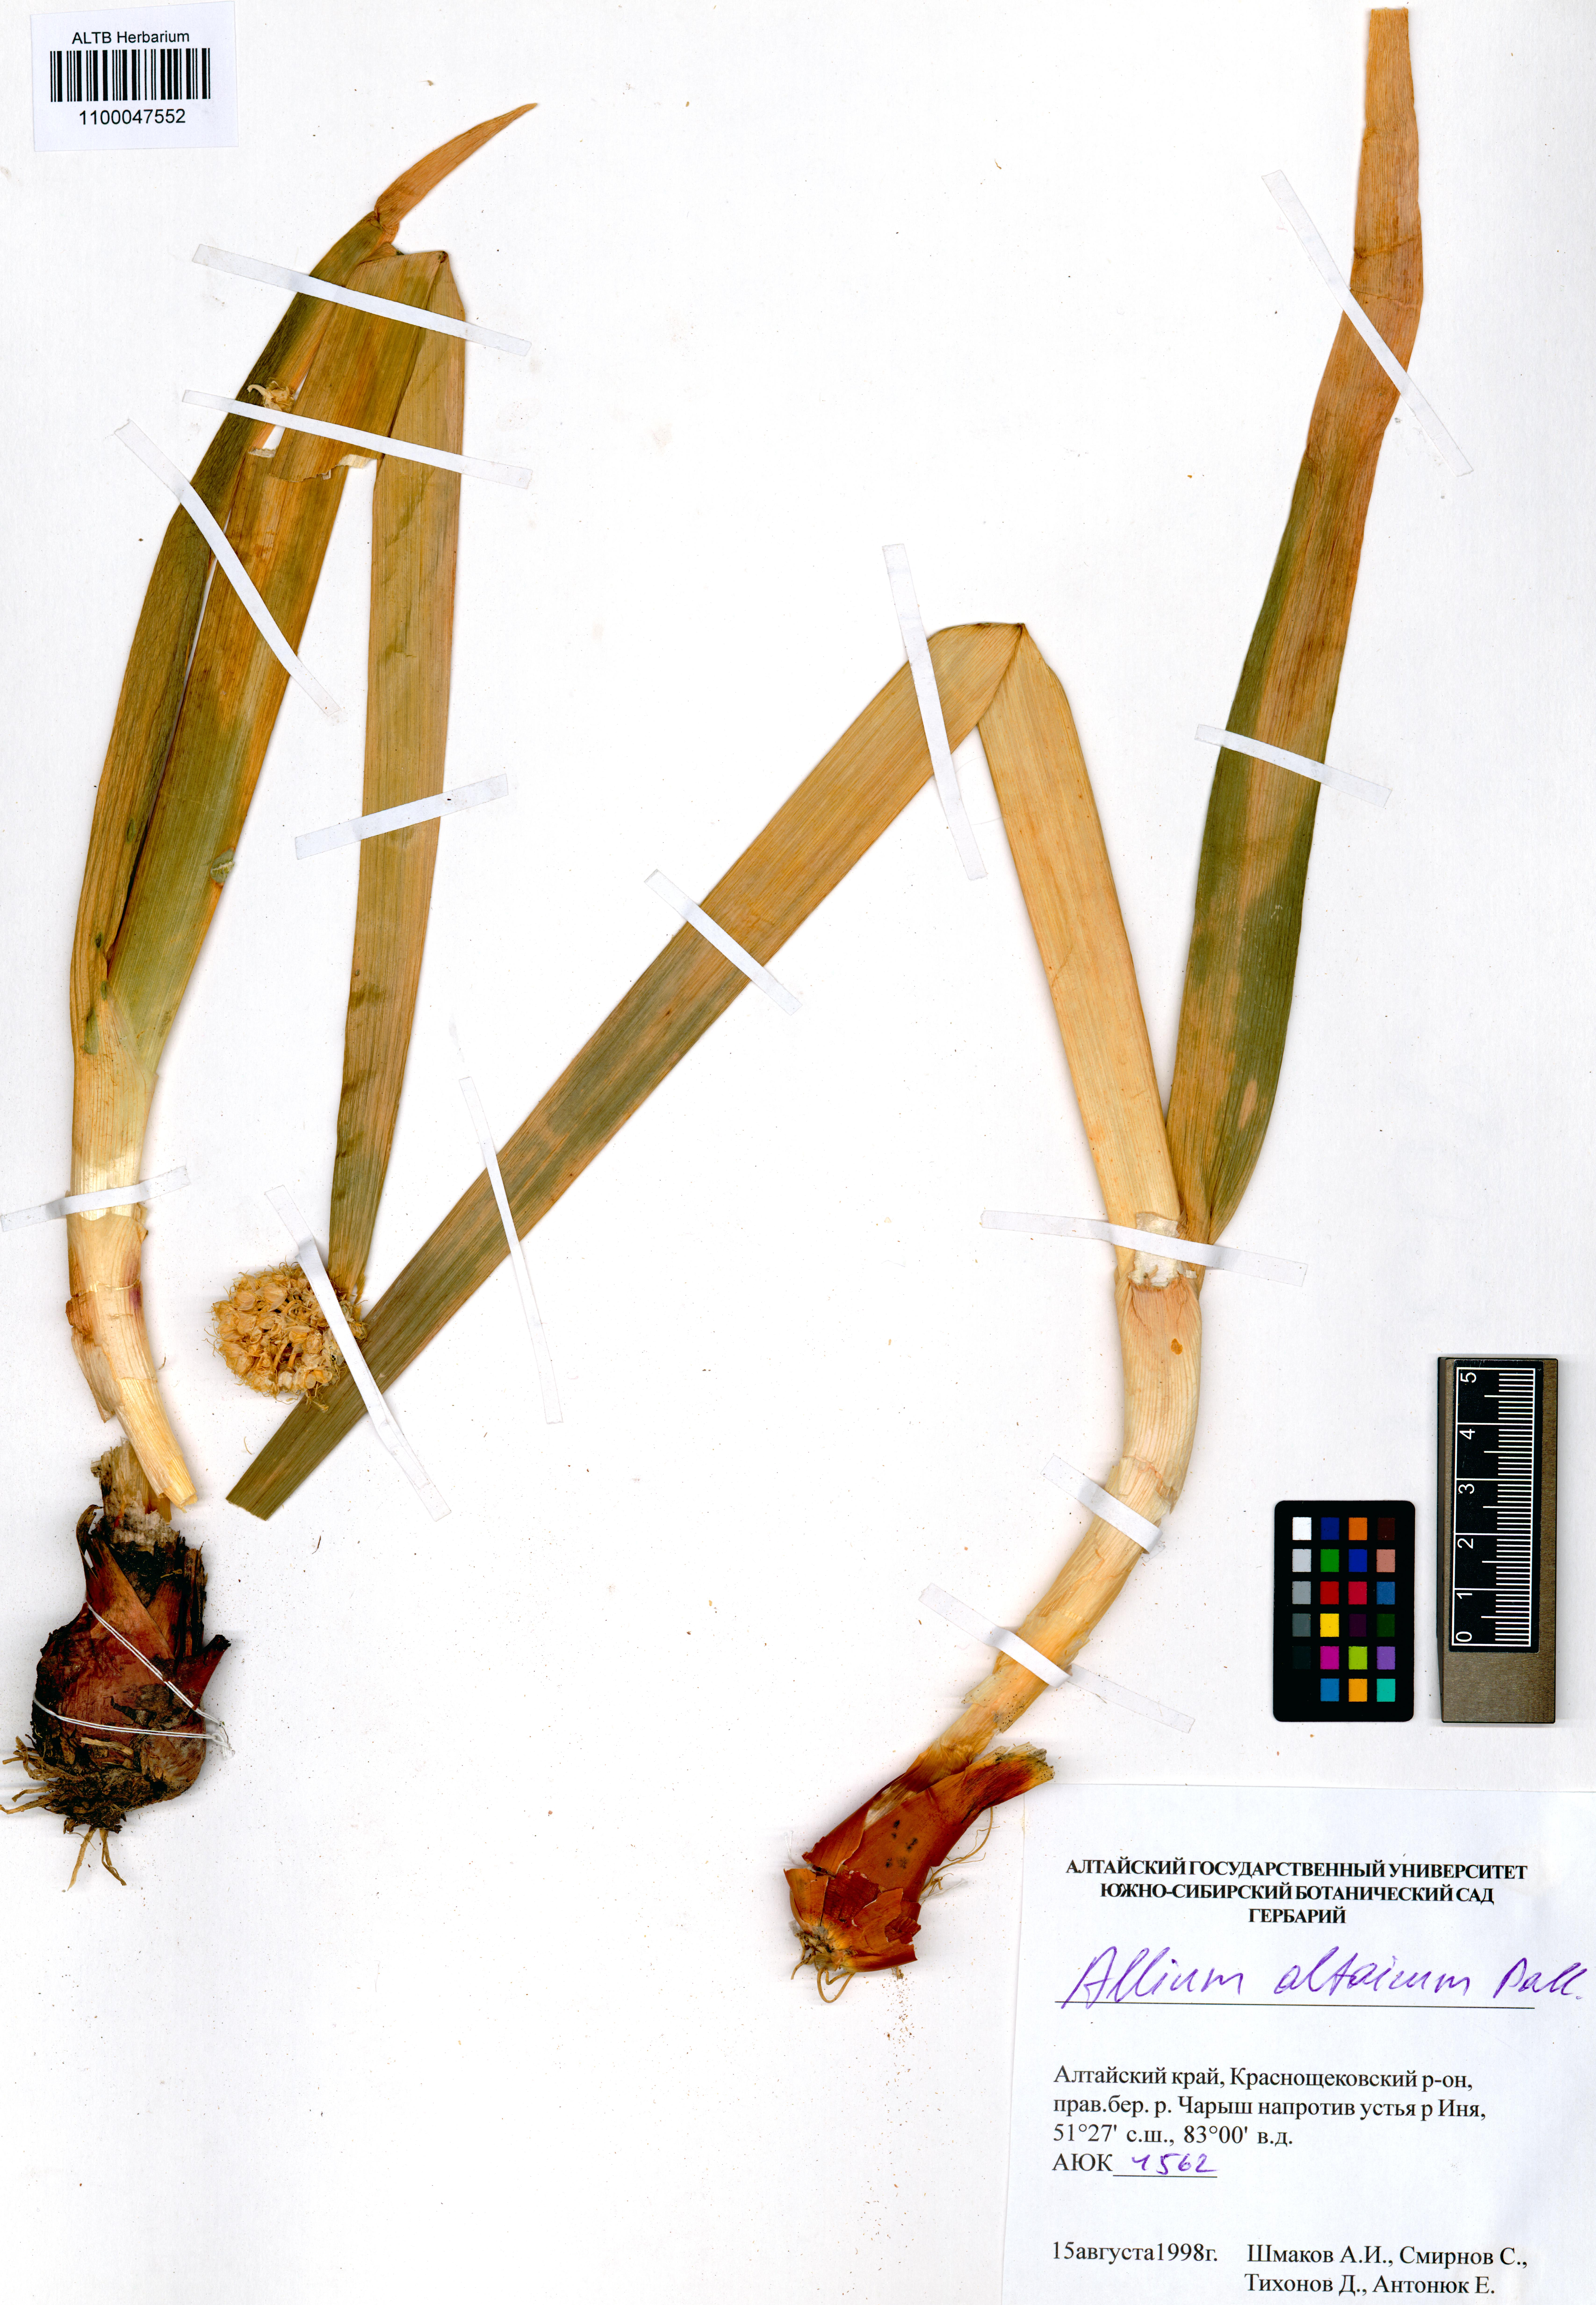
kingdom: Plantae
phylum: Tracheophyta
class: Liliopsida
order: Asparagales
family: Amaryllidaceae
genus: Allium
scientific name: Allium altaicum
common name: Altai onion
